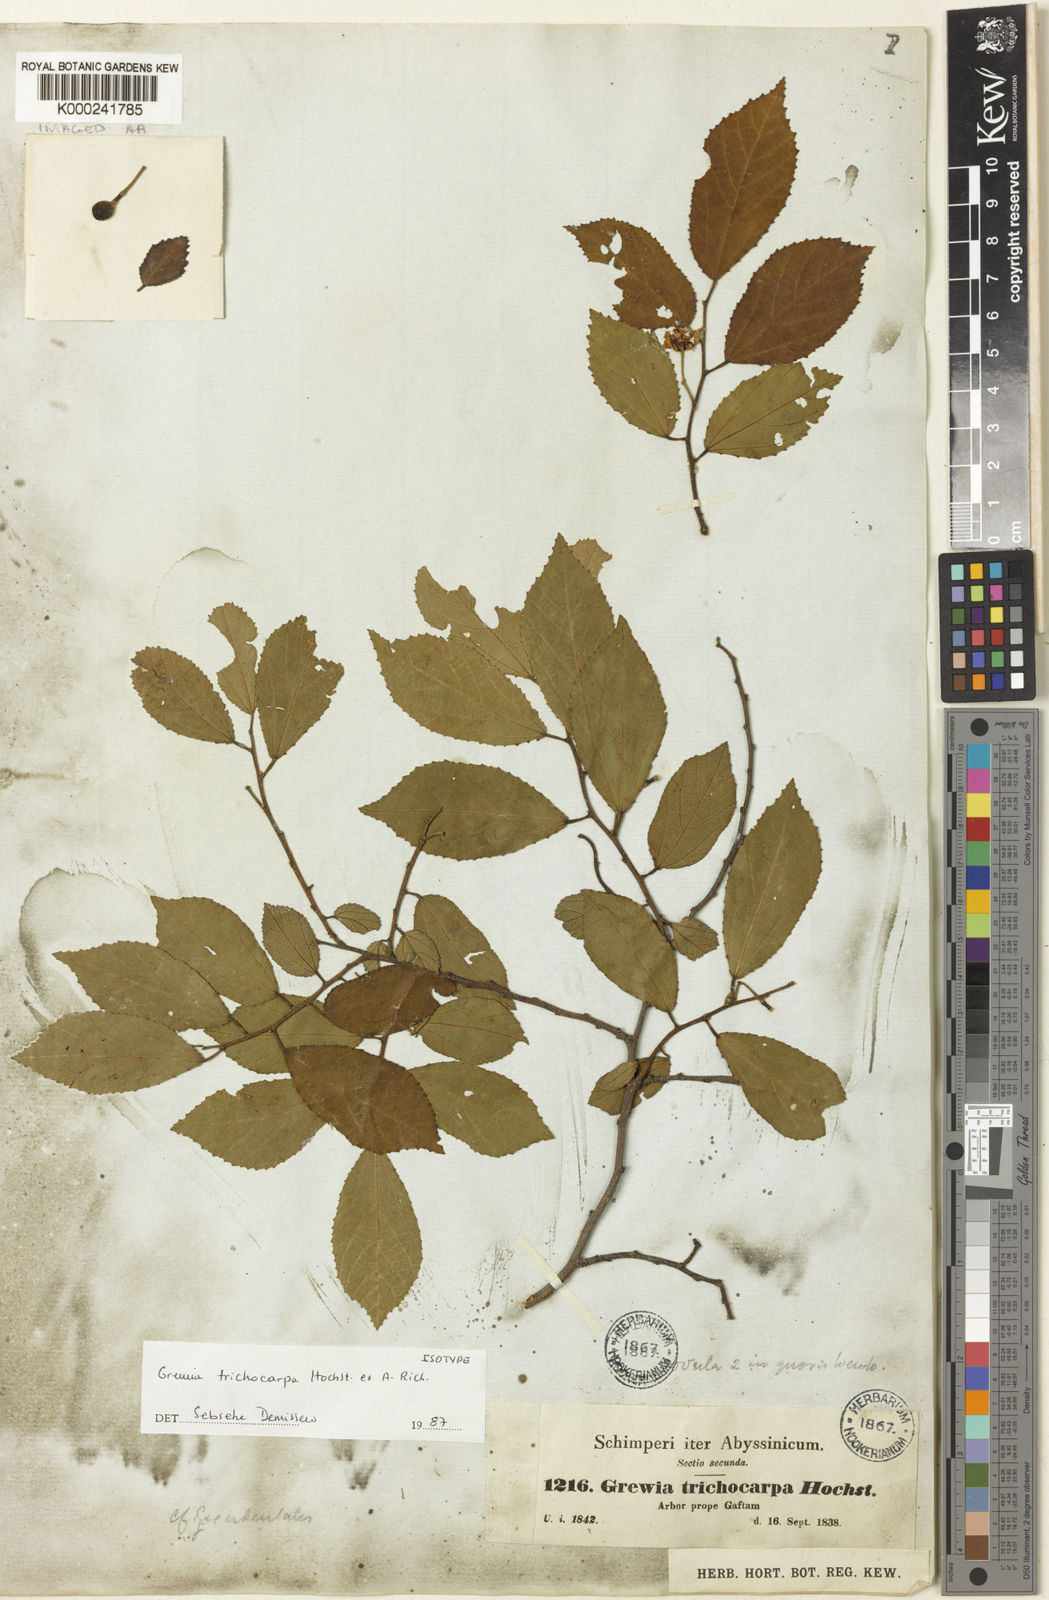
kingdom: Plantae
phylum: Tracheophyta
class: Magnoliopsida
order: Malvales
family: Malvaceae
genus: Grewia
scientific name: Grewia trichocarpa
